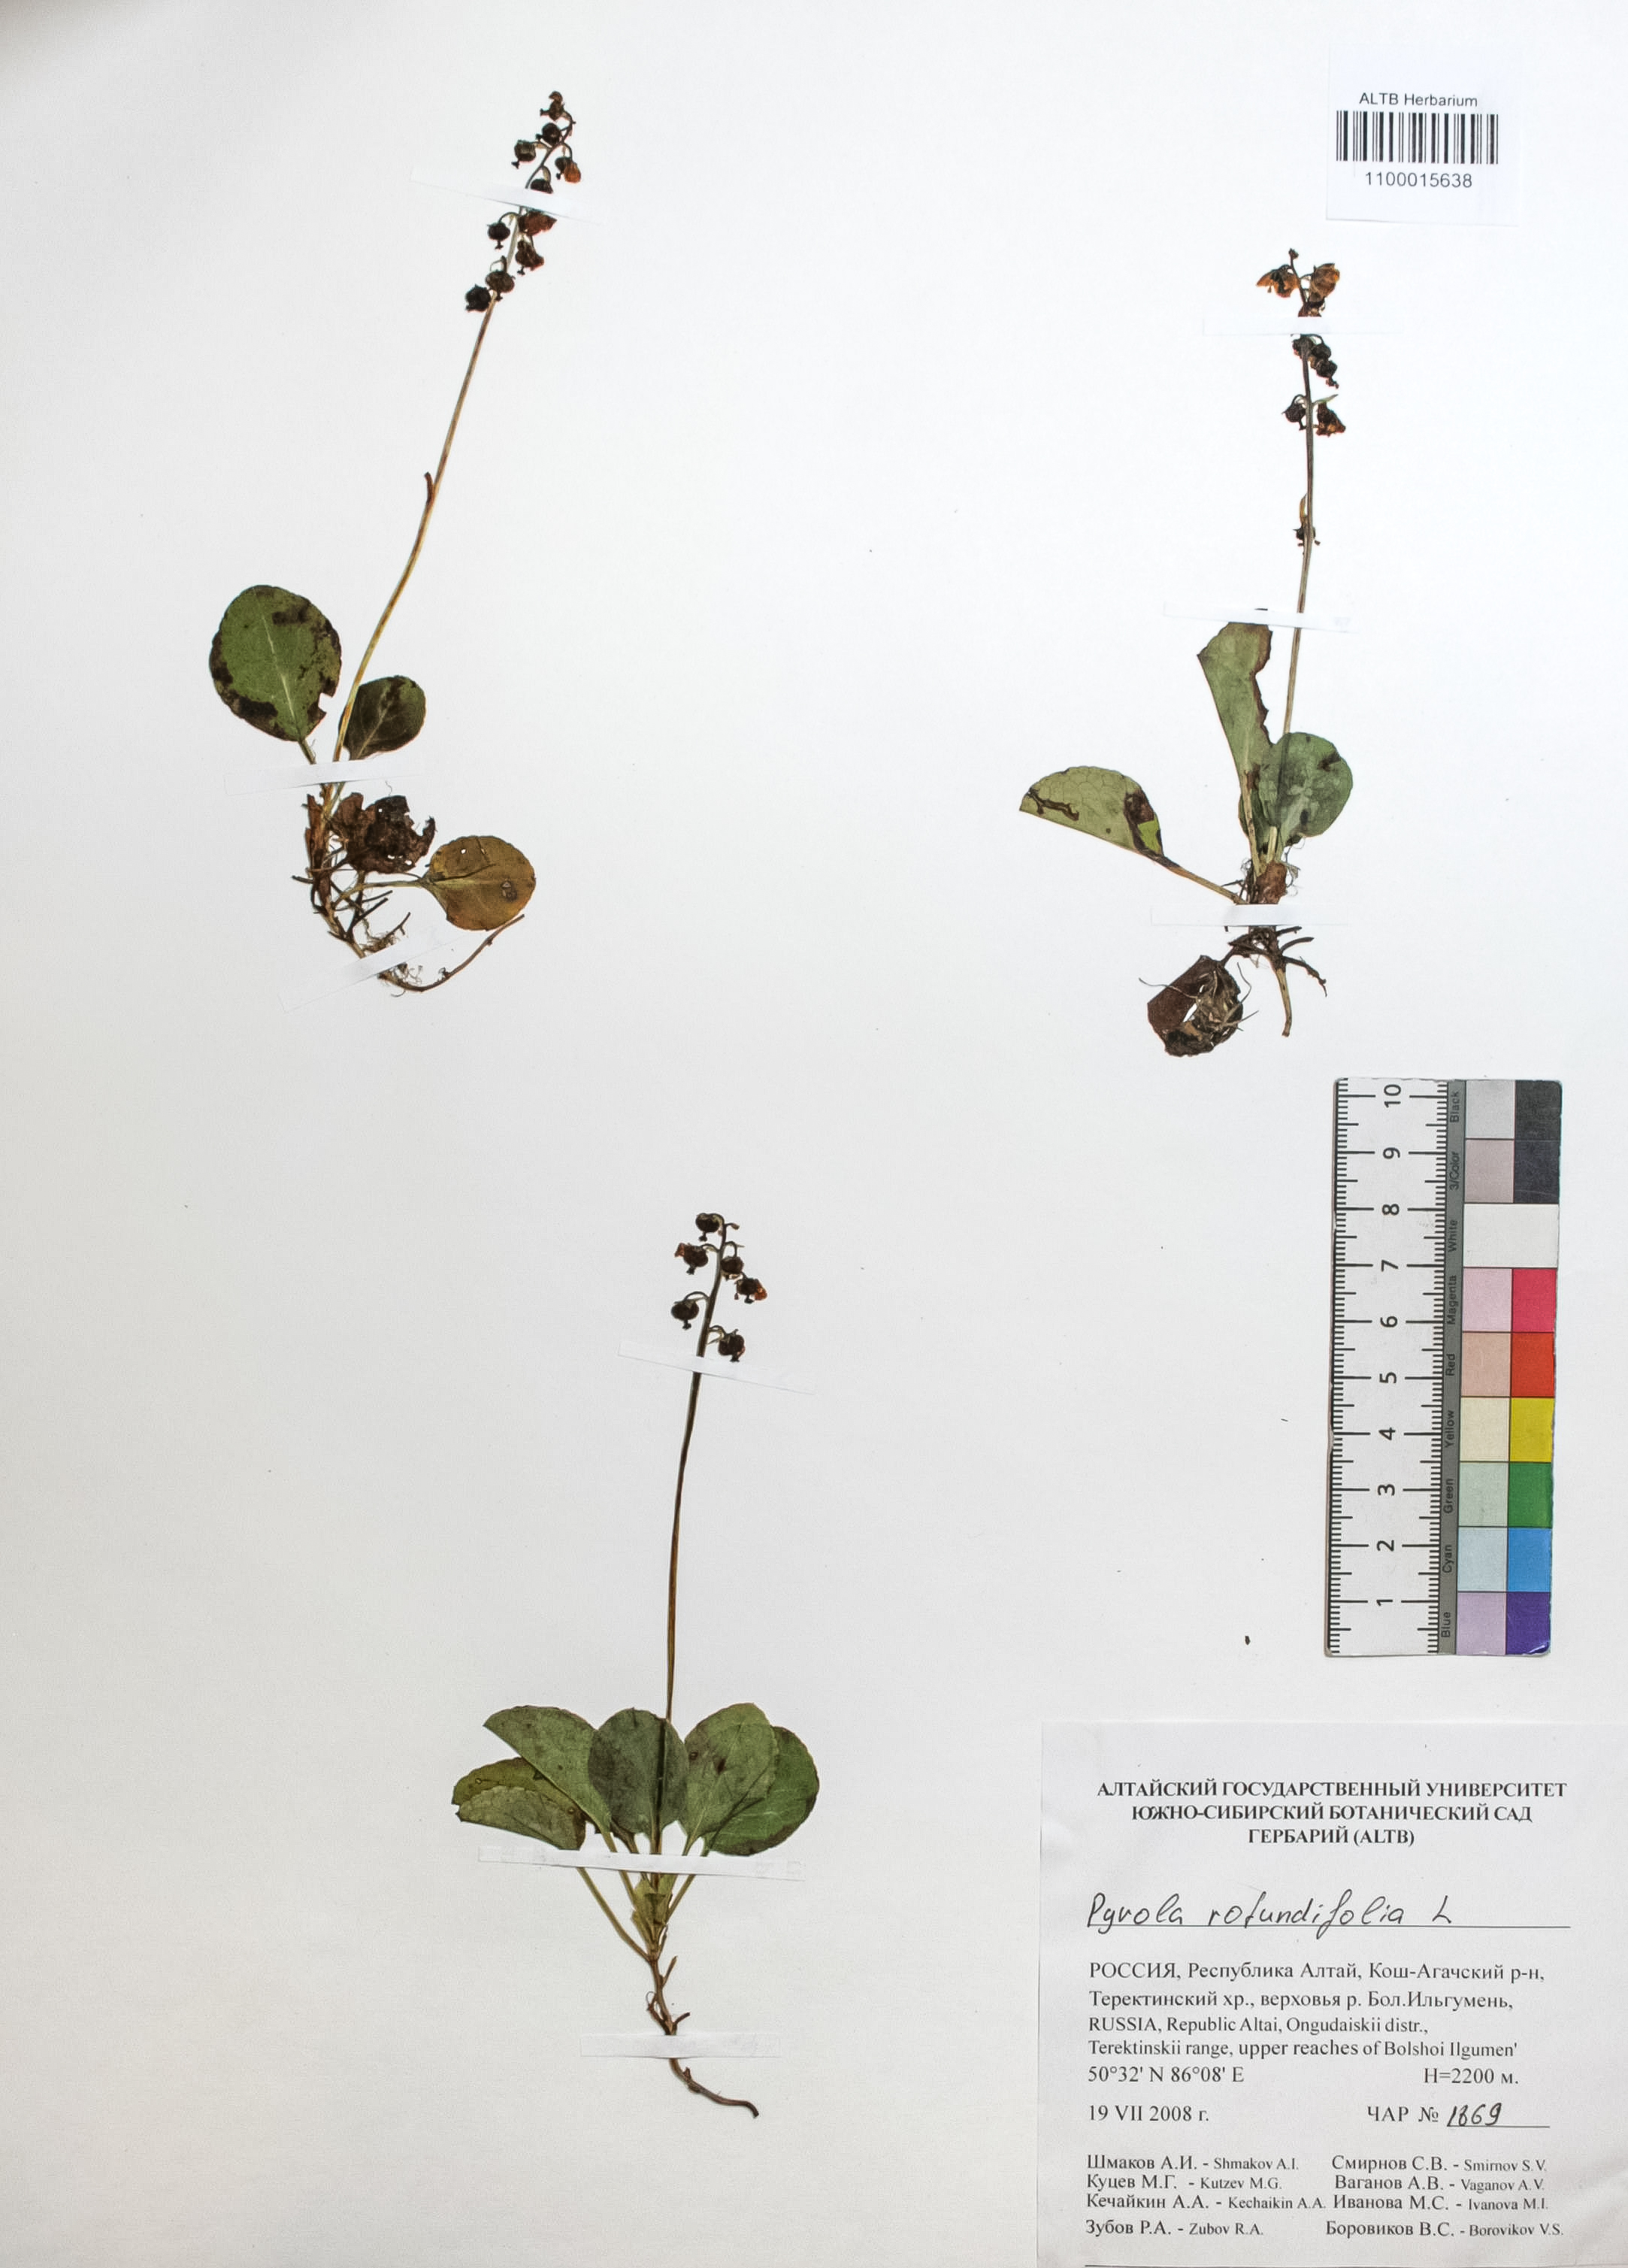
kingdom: Plantae
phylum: Tracheophyta
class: Magnoliopsida
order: Ericales
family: Ericaceae
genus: Pyrola
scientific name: Pyrola rotundifolia
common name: Round-leaved wintergreen
